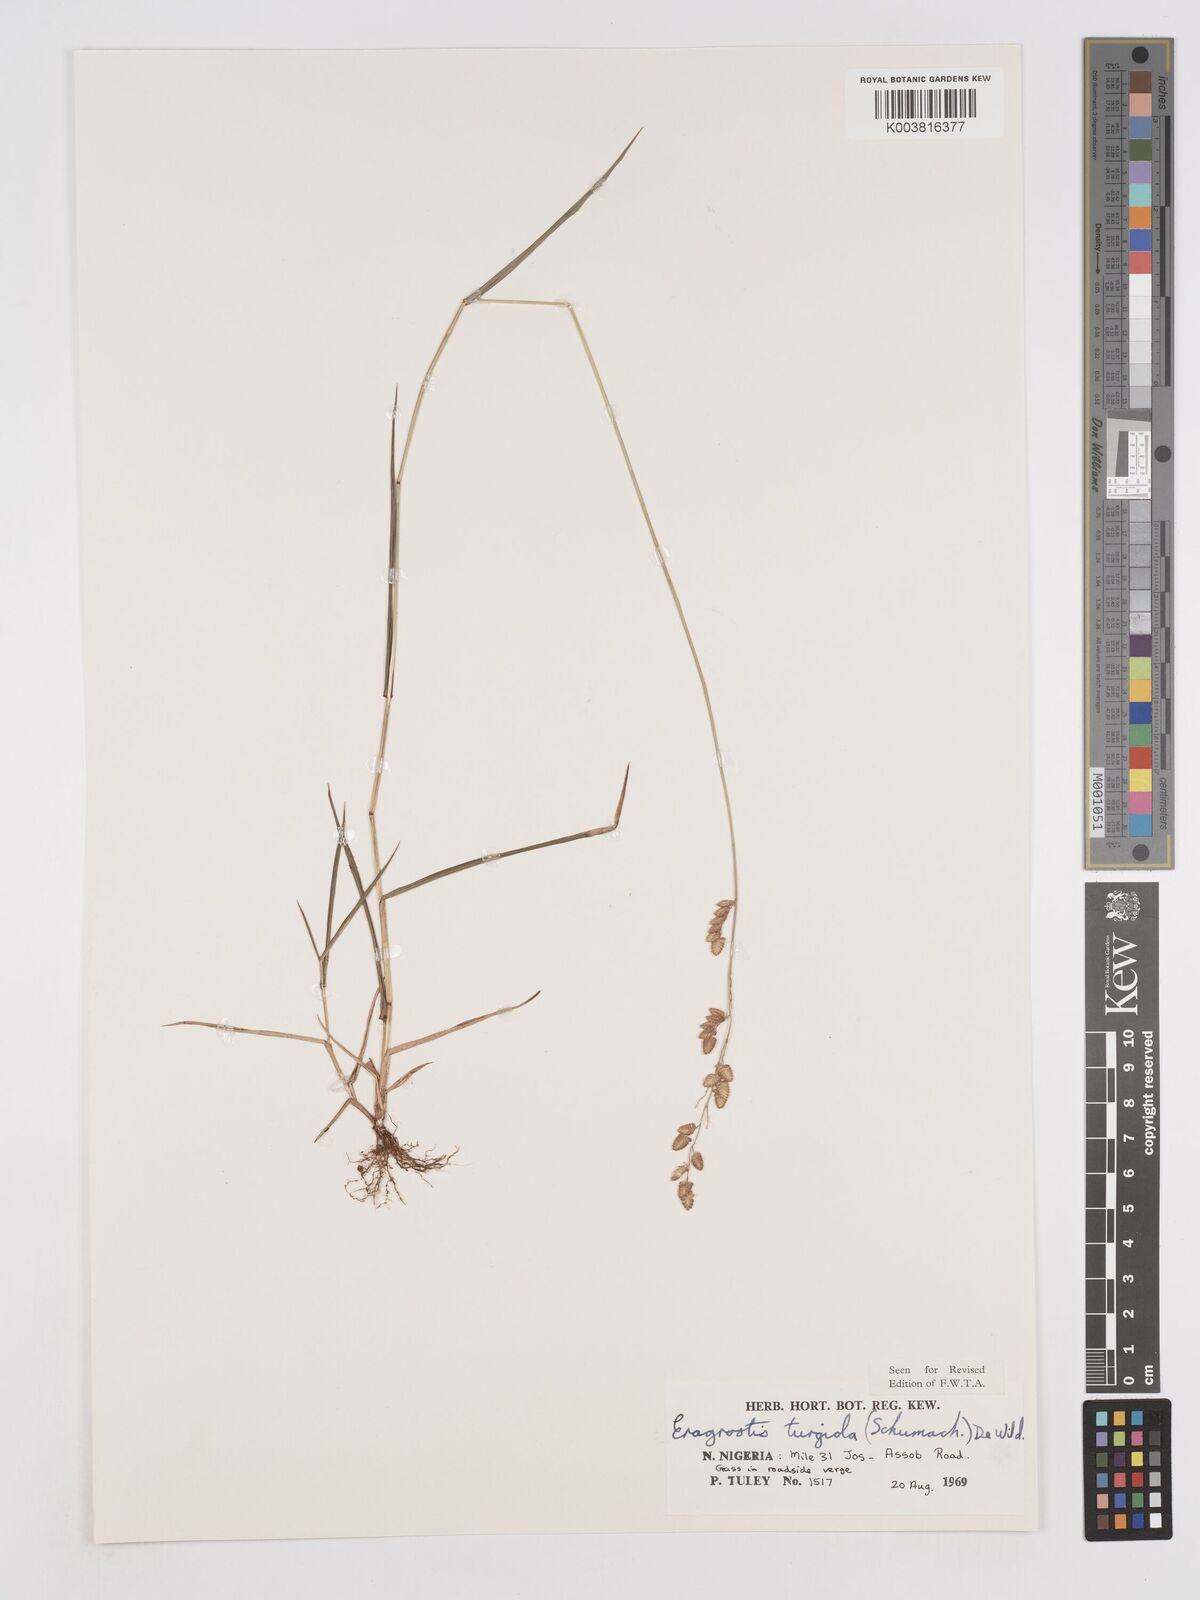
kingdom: Plantae
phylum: Tracheophyta
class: Liliopsida
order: Poales
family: Poaceae
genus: Eragrostis
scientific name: Eragrostis turgida
